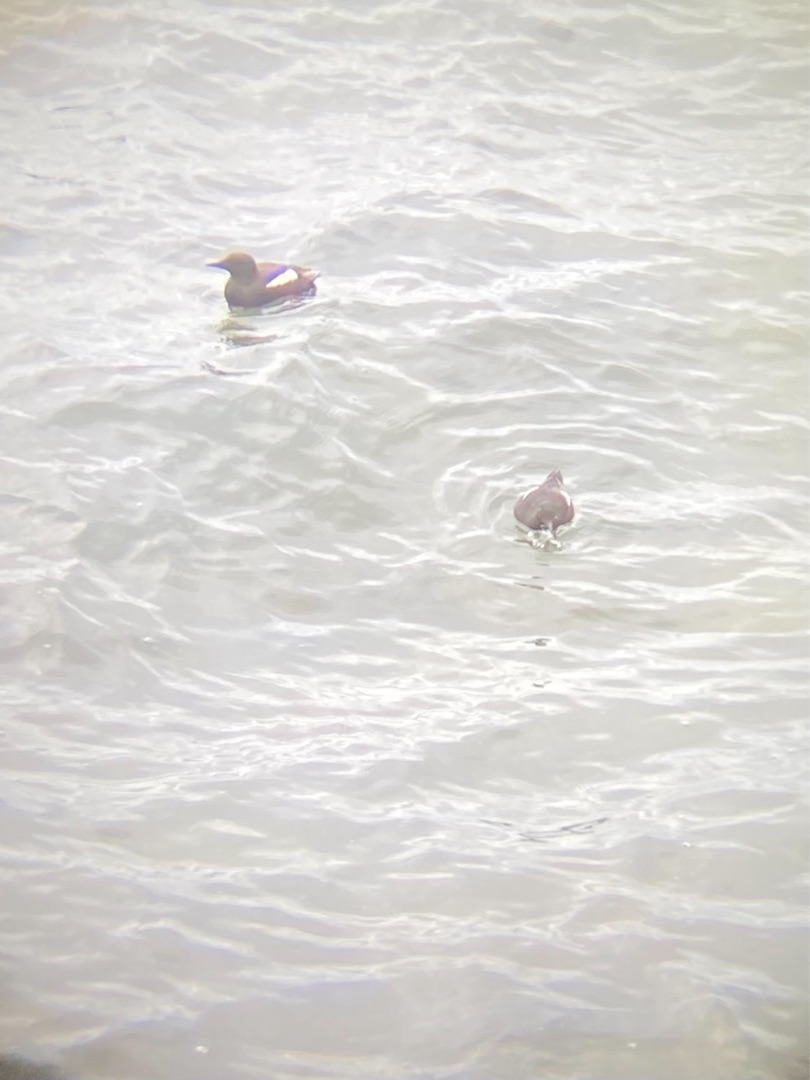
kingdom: Animalia
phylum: Chordata
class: Aves
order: Charadriiformes
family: Alcidae
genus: Cepphus
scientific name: Cepphus grylle
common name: Tejst
